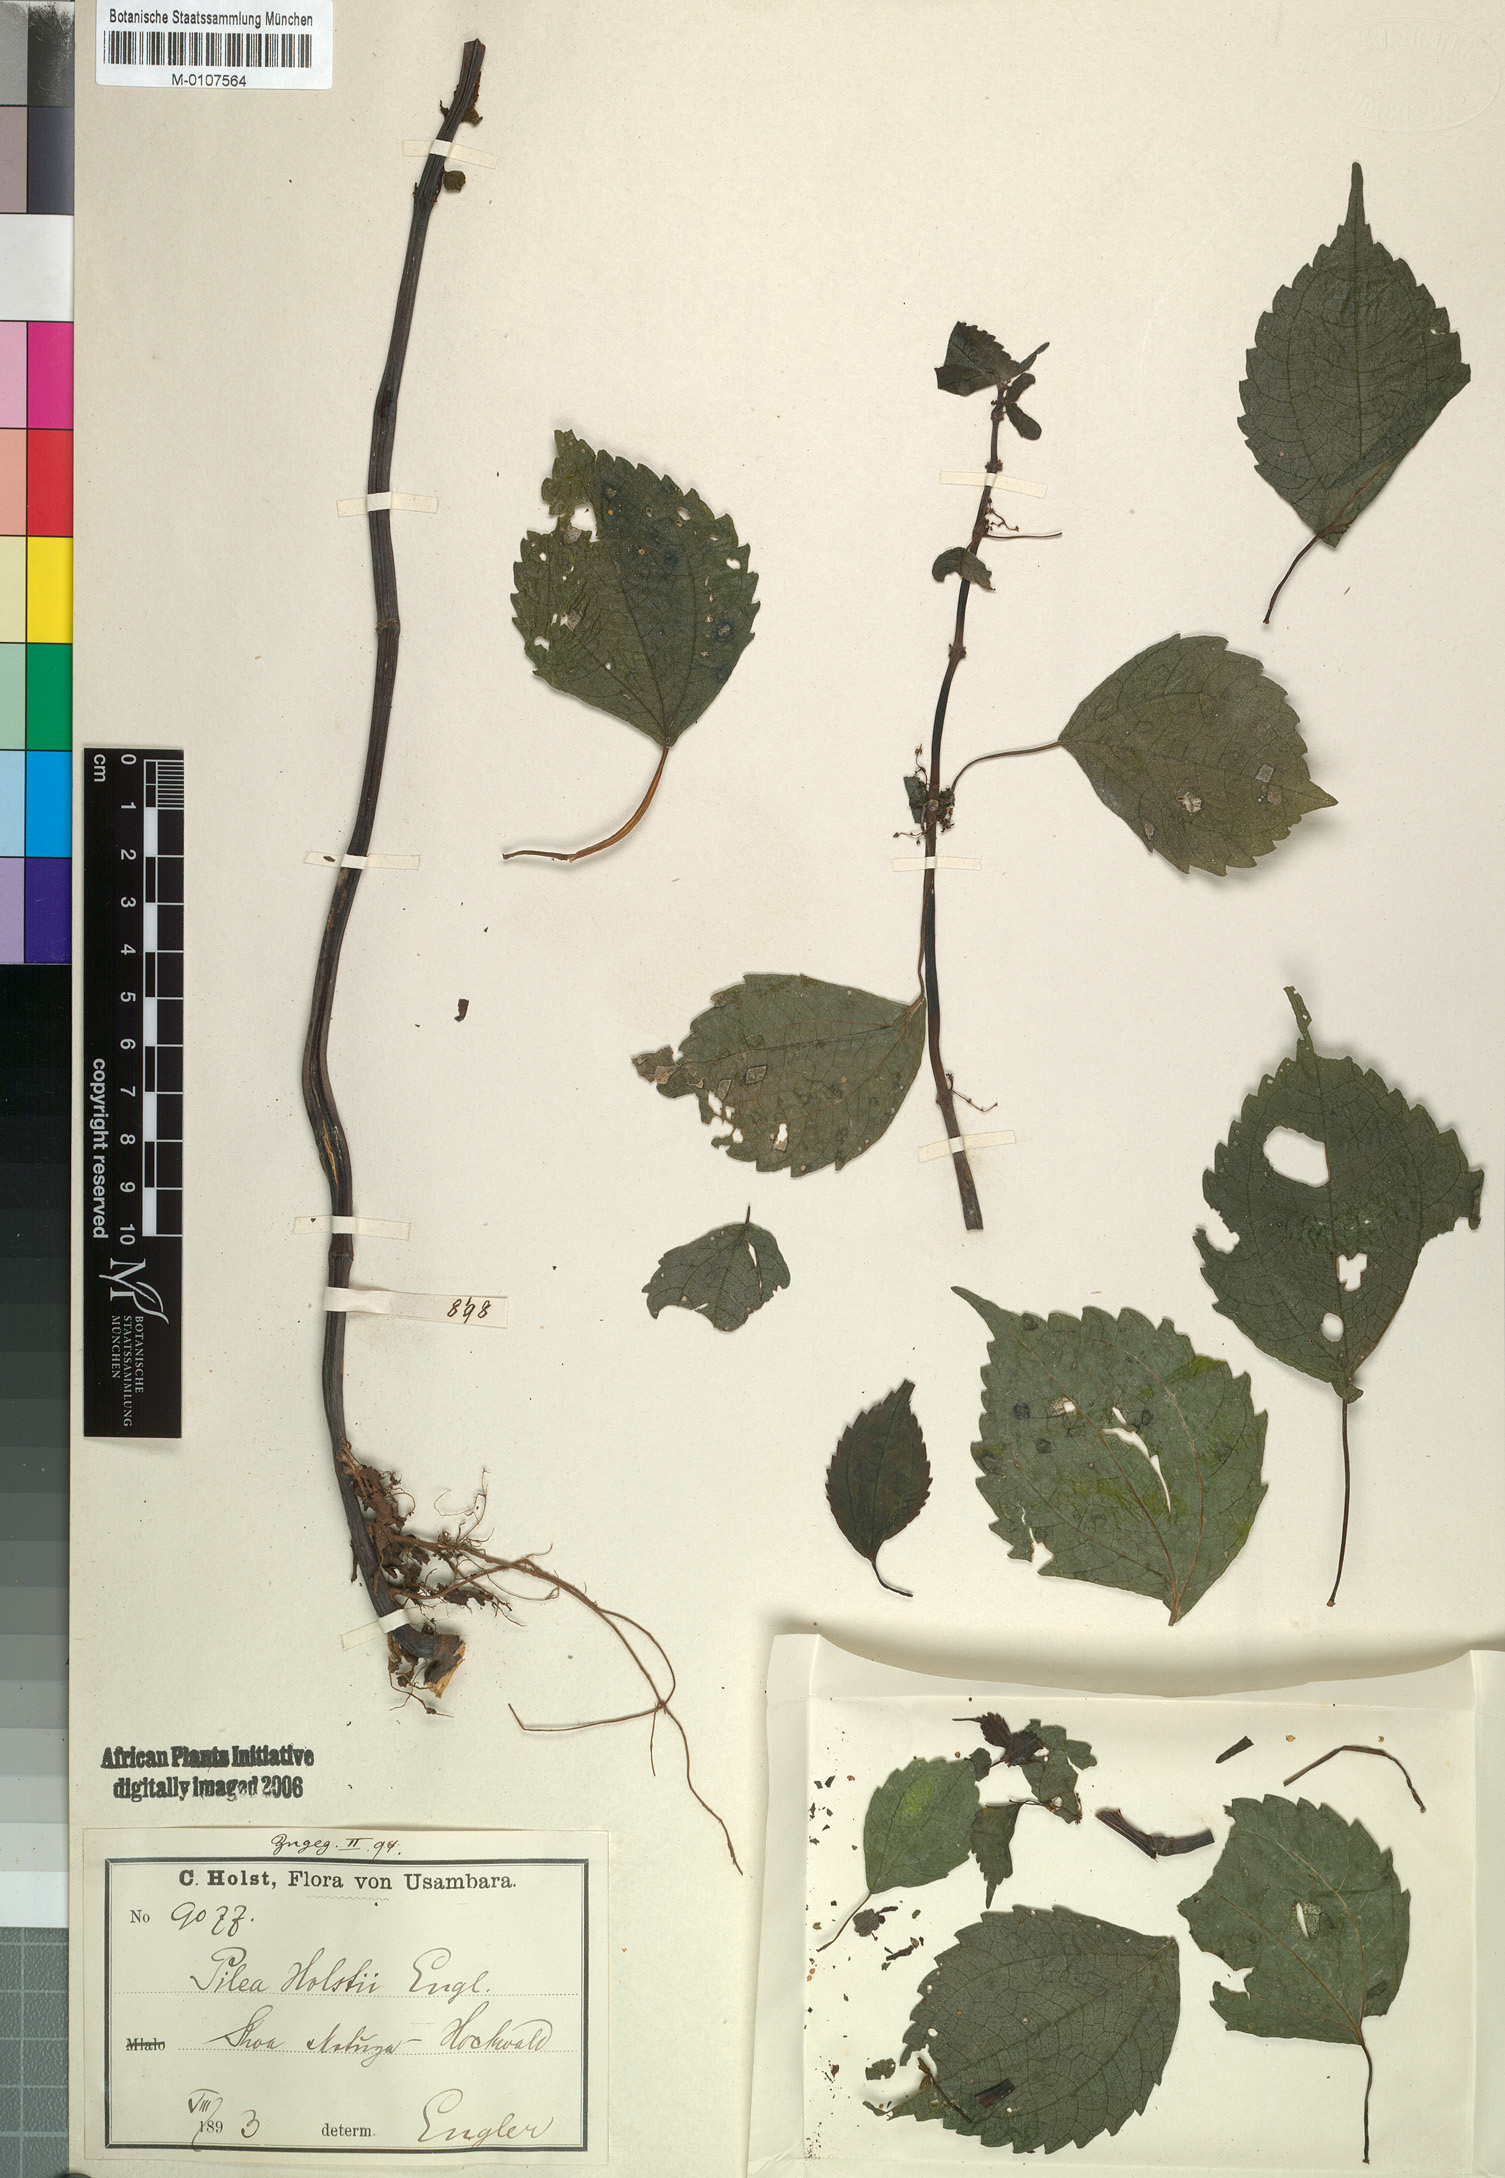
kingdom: Plantae
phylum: Tracheophyta
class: Magnoliopsida
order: Rosales
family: Urticaceae
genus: Pilea
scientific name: Pilea holstii
